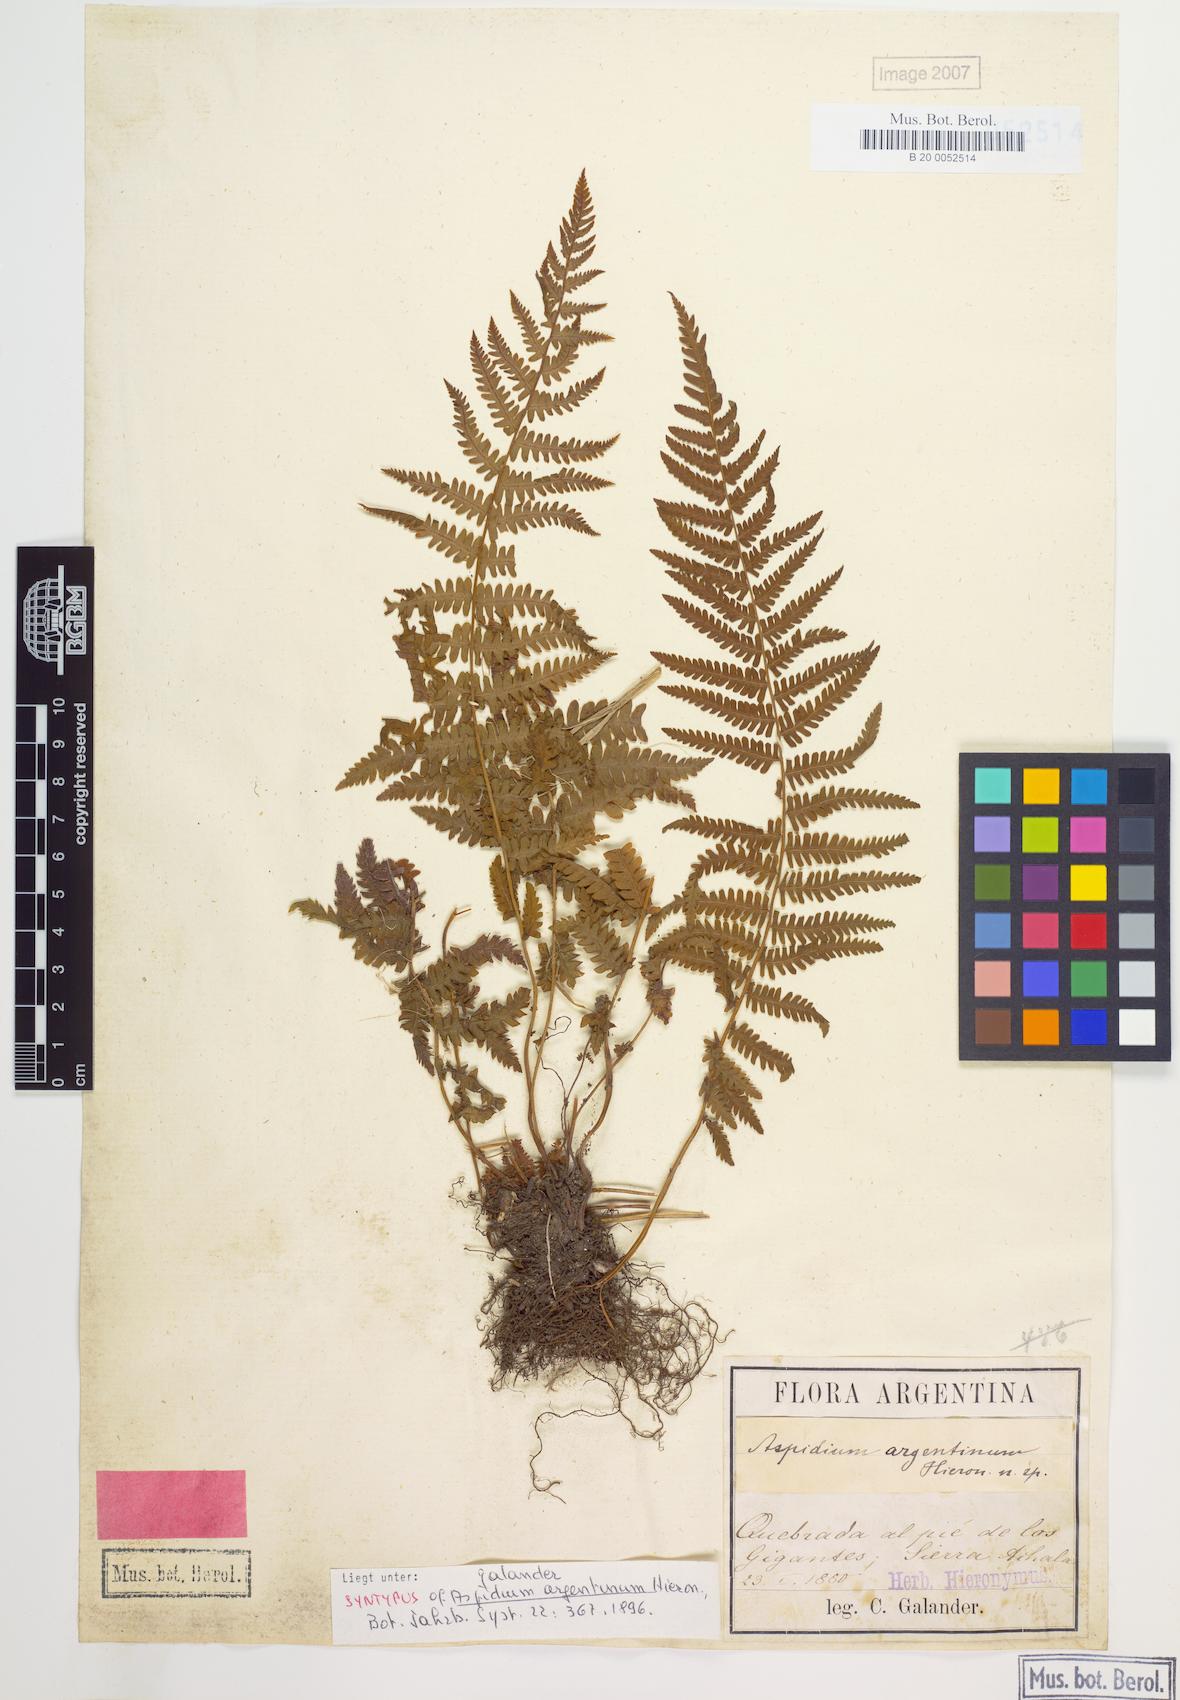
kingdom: Plantae
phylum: Tracheophyta
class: Polypodiopsida
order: Polypodiales
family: Thelypteridaceae
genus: Amauropelta
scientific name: Amauropelta argentina
